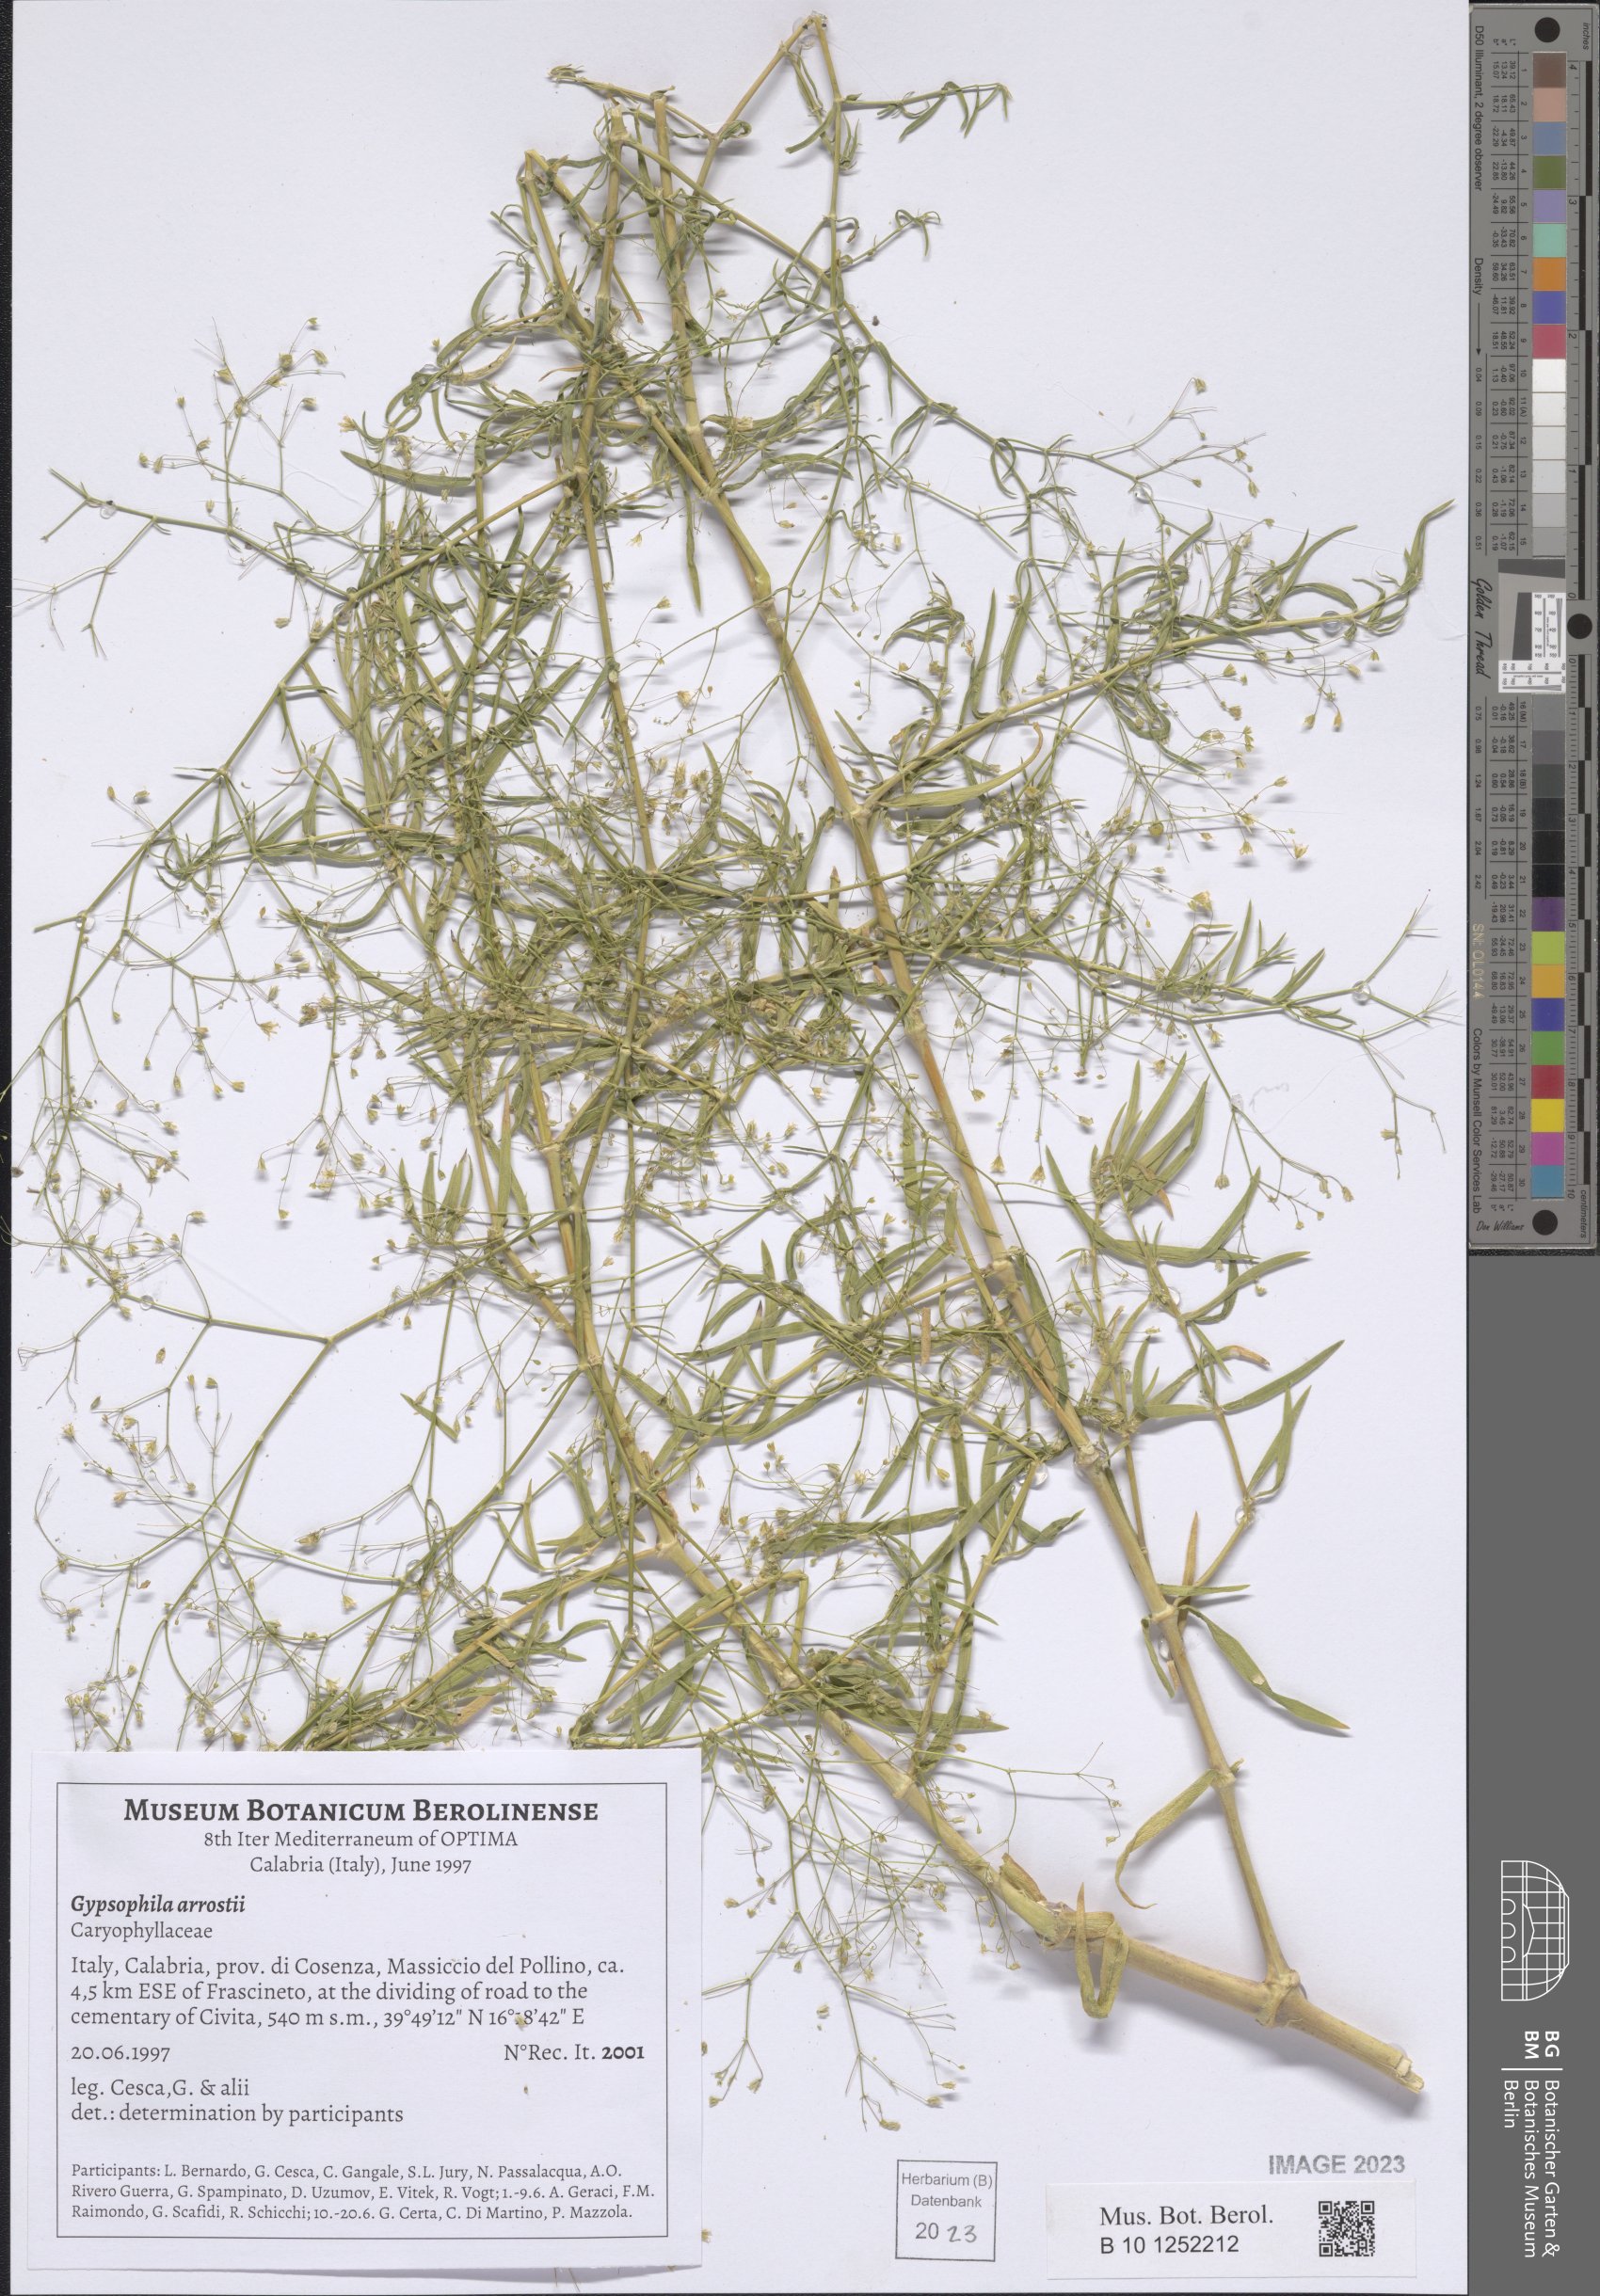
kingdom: Plantae
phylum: Tracheophyta
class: Magnoliopsida
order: Caryophyllales
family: Caryophyllaceae
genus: Gypsophila
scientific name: Gypsophila arrostii
